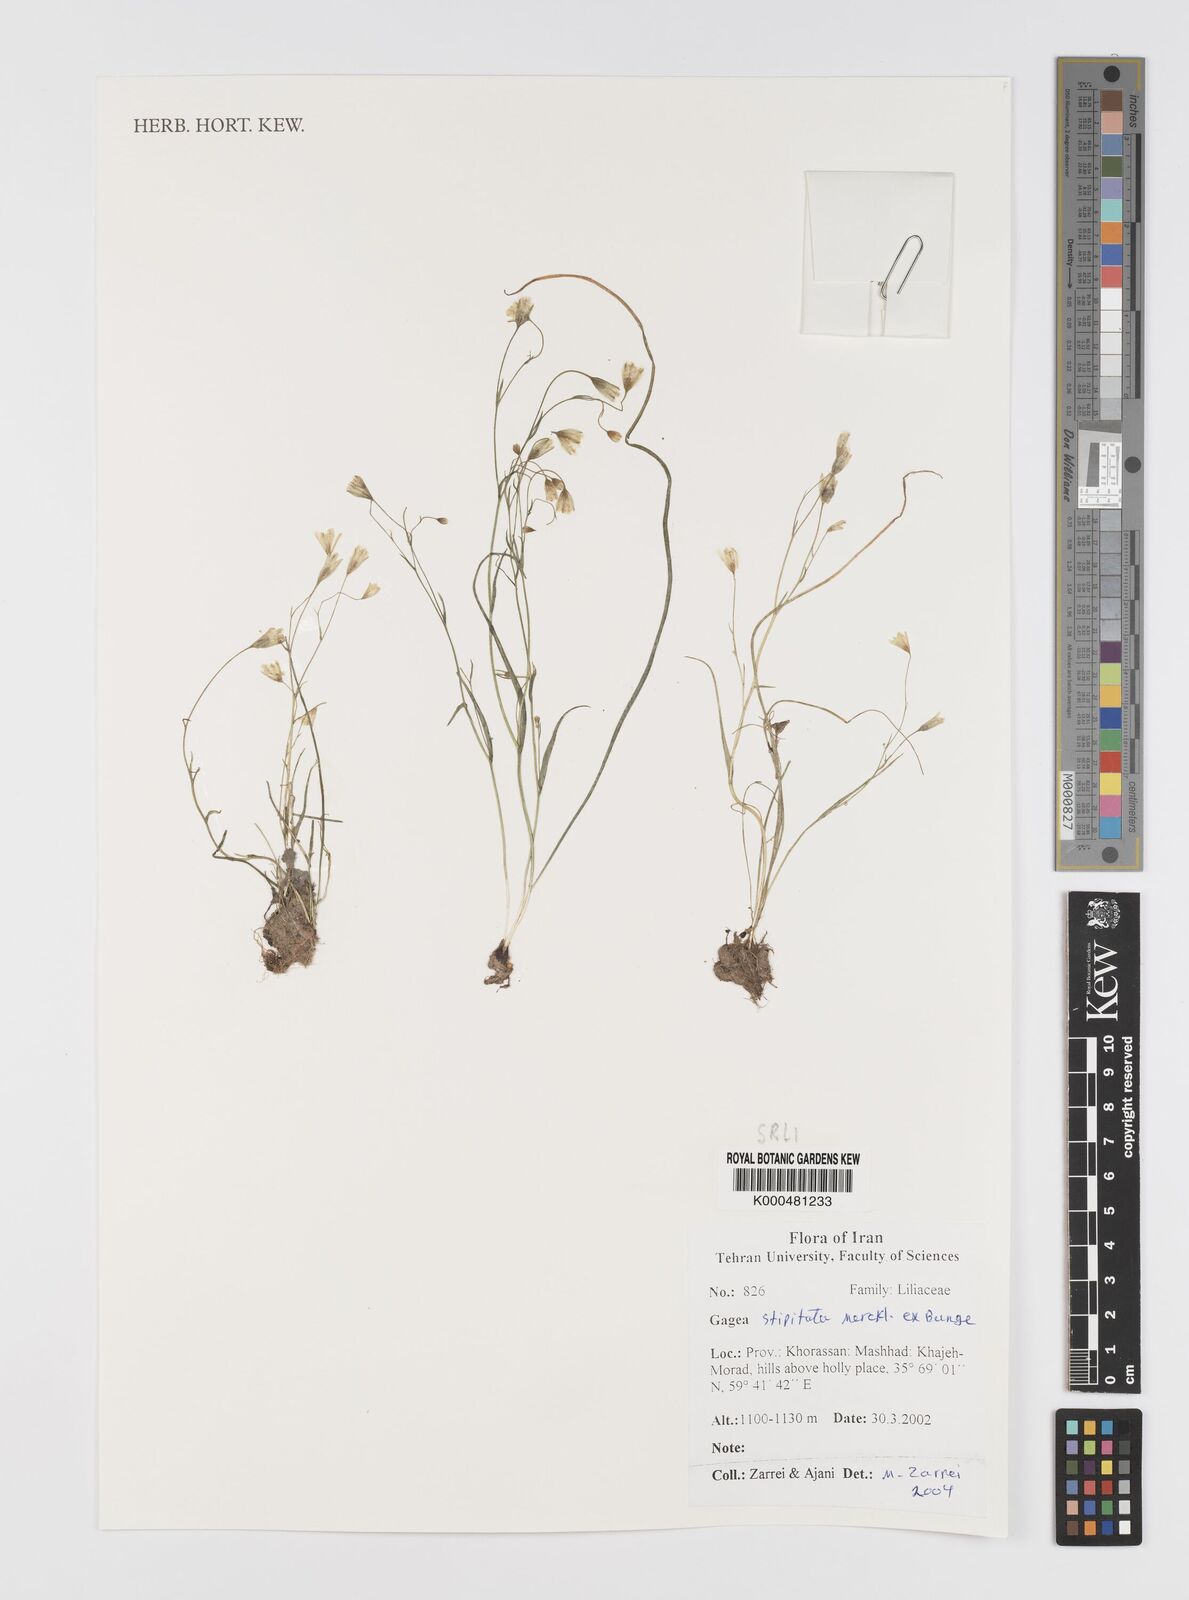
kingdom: Plantae
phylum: Tracheophyta
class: Liliopsida
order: Liliales
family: Liliaceae
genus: Gagea
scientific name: Gagea kunawurensis
